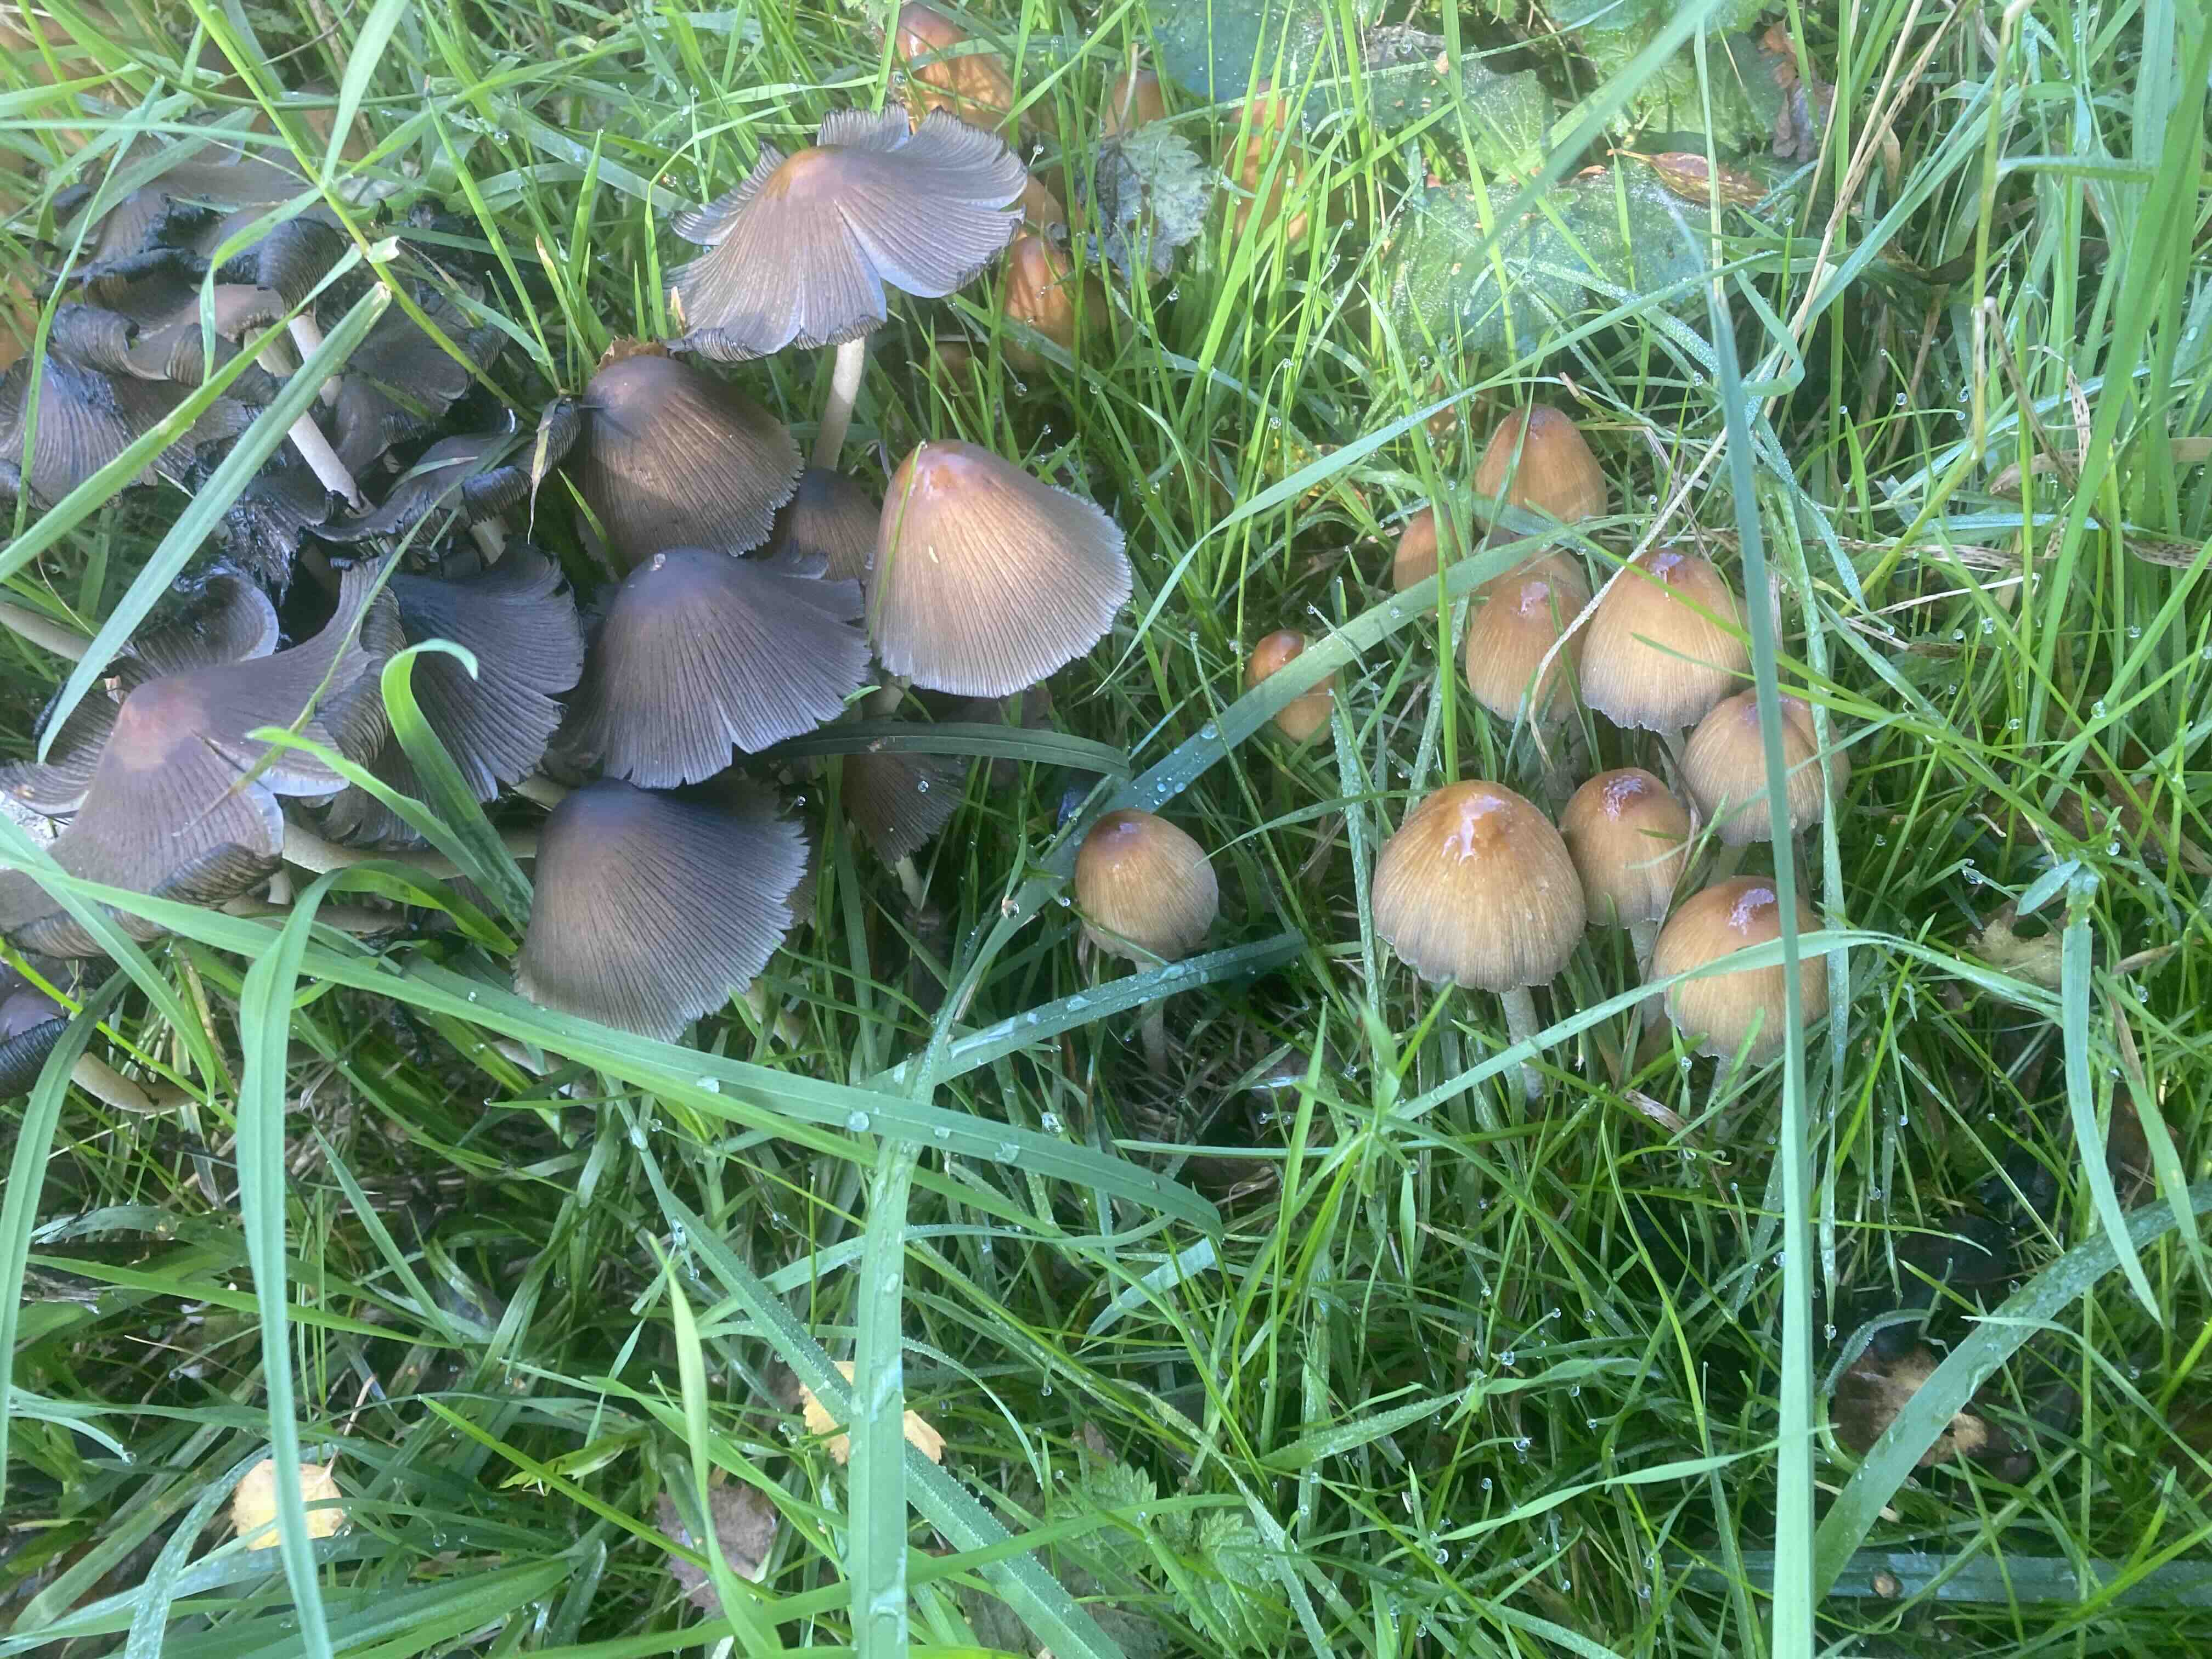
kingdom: Fungi
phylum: Basidiomycota
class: Agaricomycetes
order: Agaricales
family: Psathyrellaceae
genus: Coprinellus
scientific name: Coprinellus micaceus
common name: glimmer-blækhat
